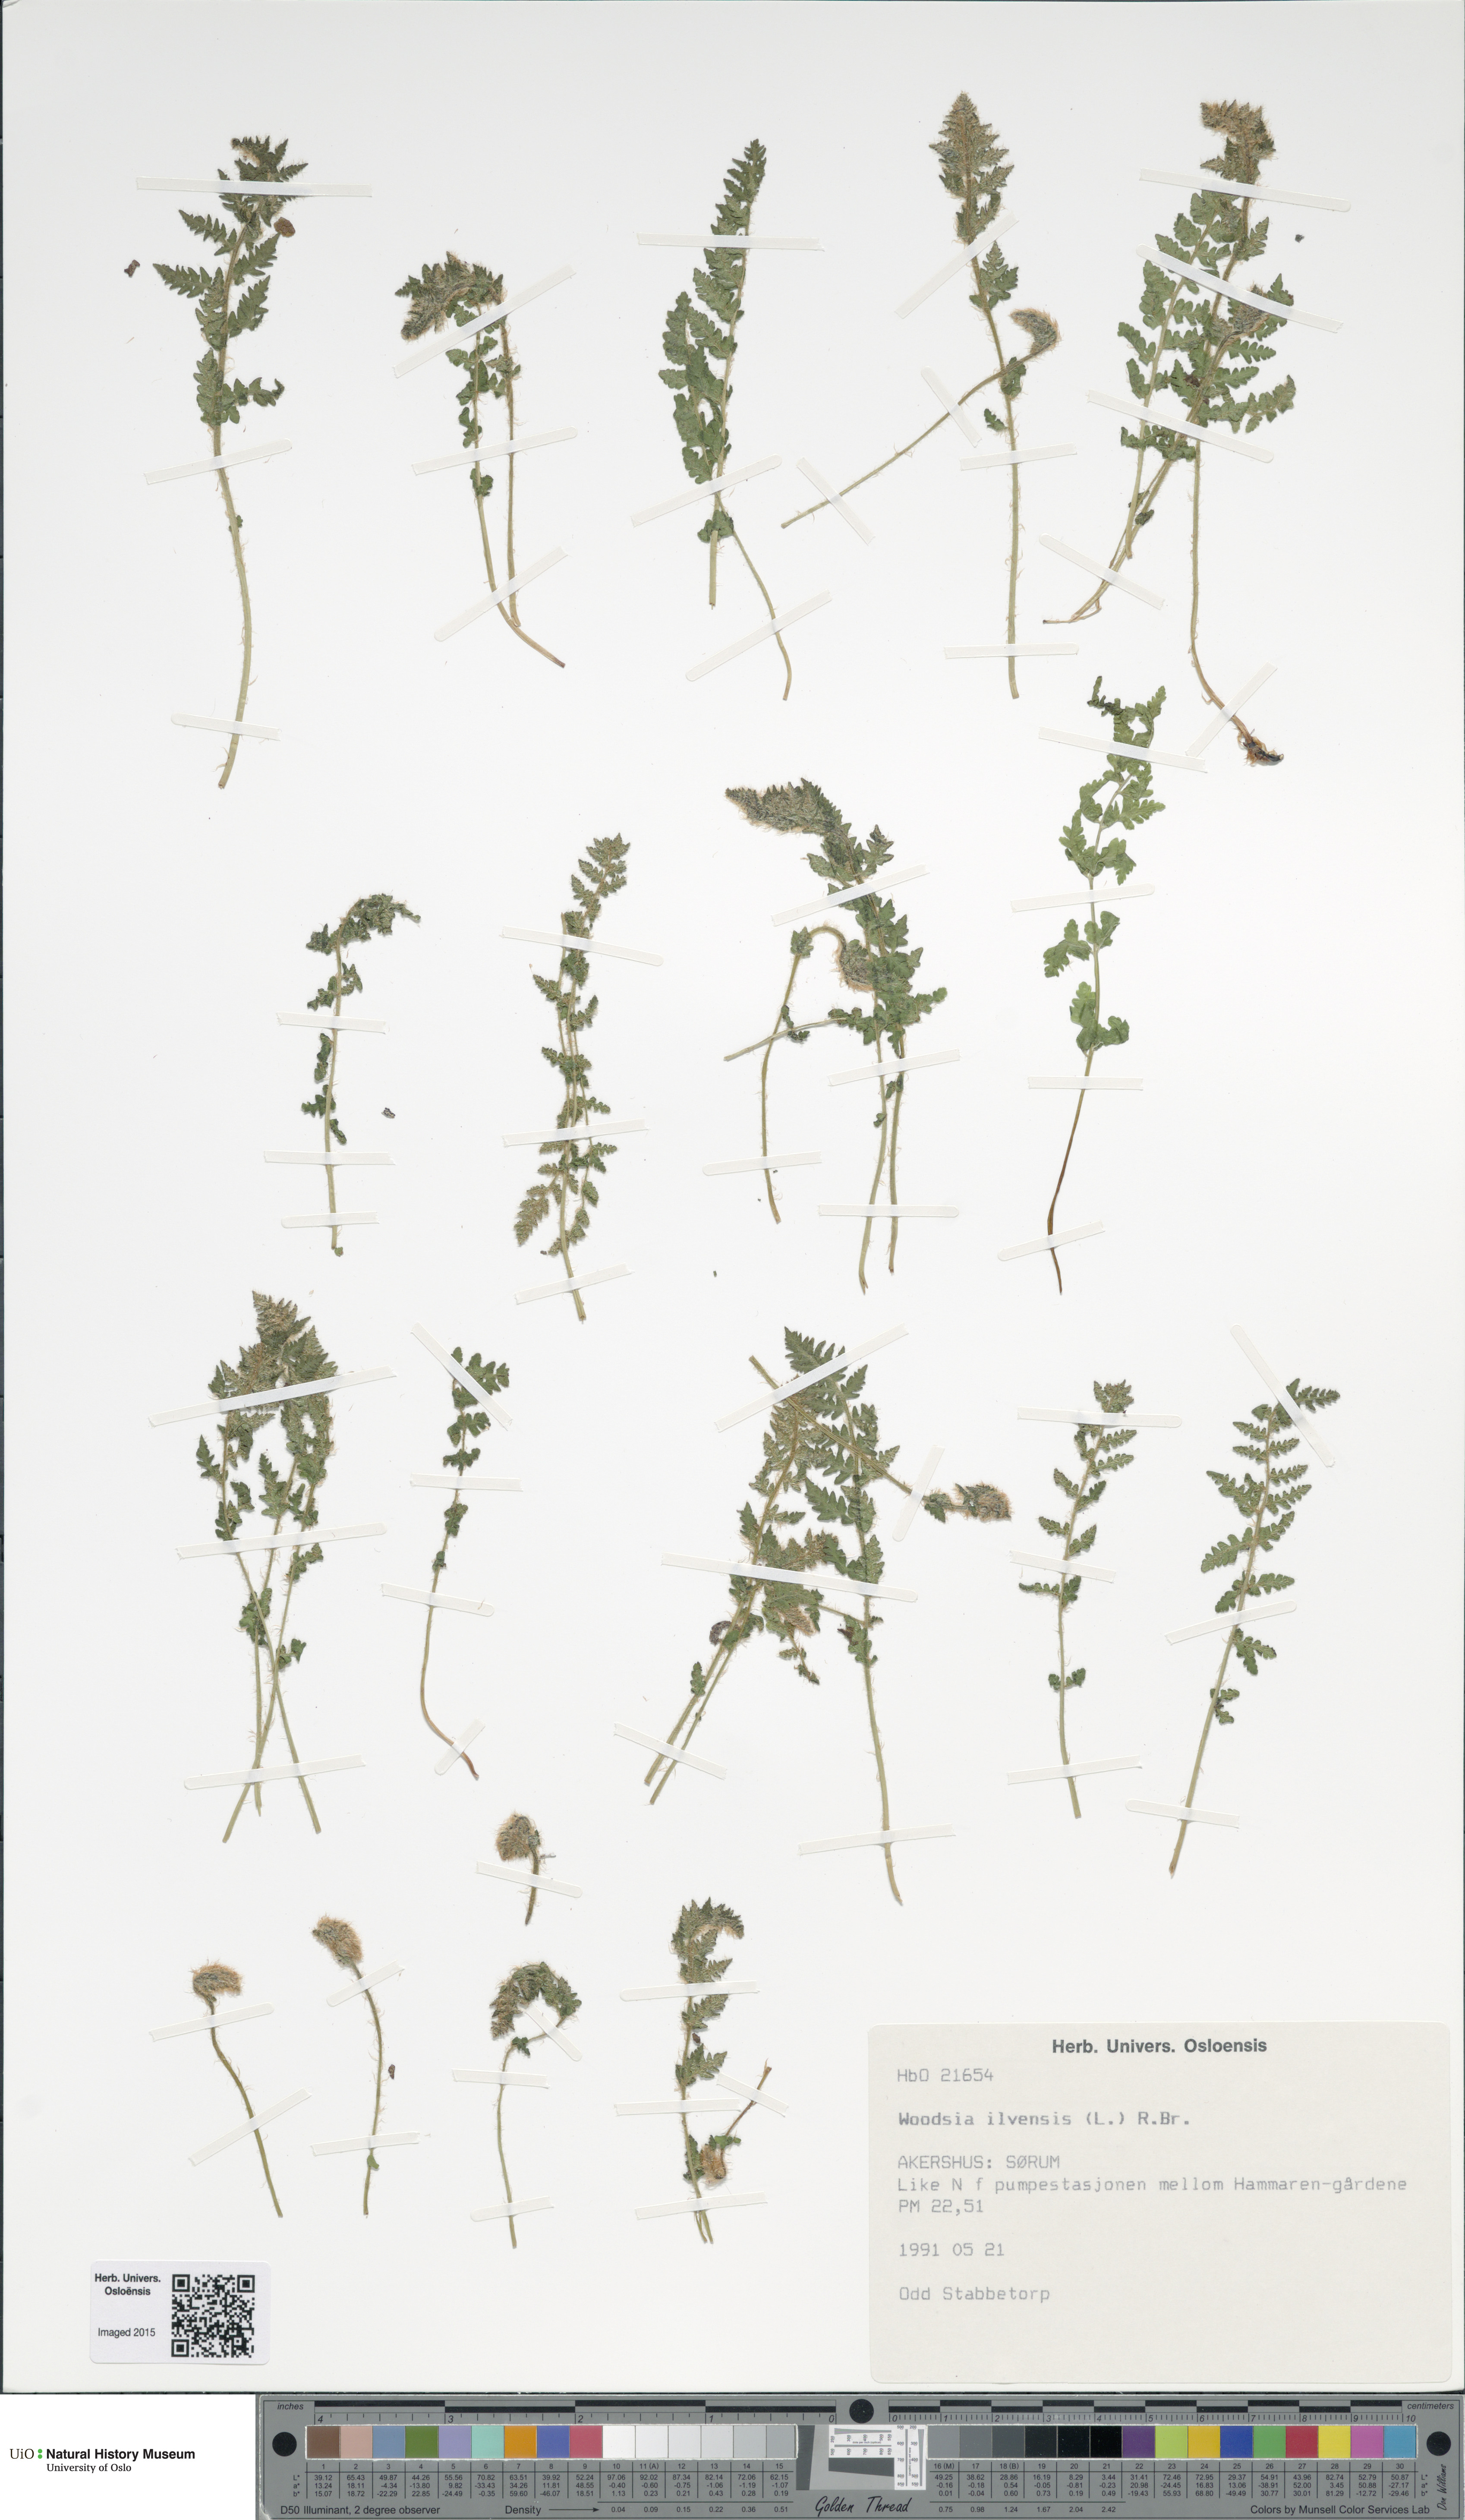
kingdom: Plantae
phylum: Tracheophyta
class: Polypodiopsida
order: Polypodiales
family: Woodsiaceae
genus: Woodsia
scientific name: Woodsia ilvensis
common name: Fragrant woodsia
